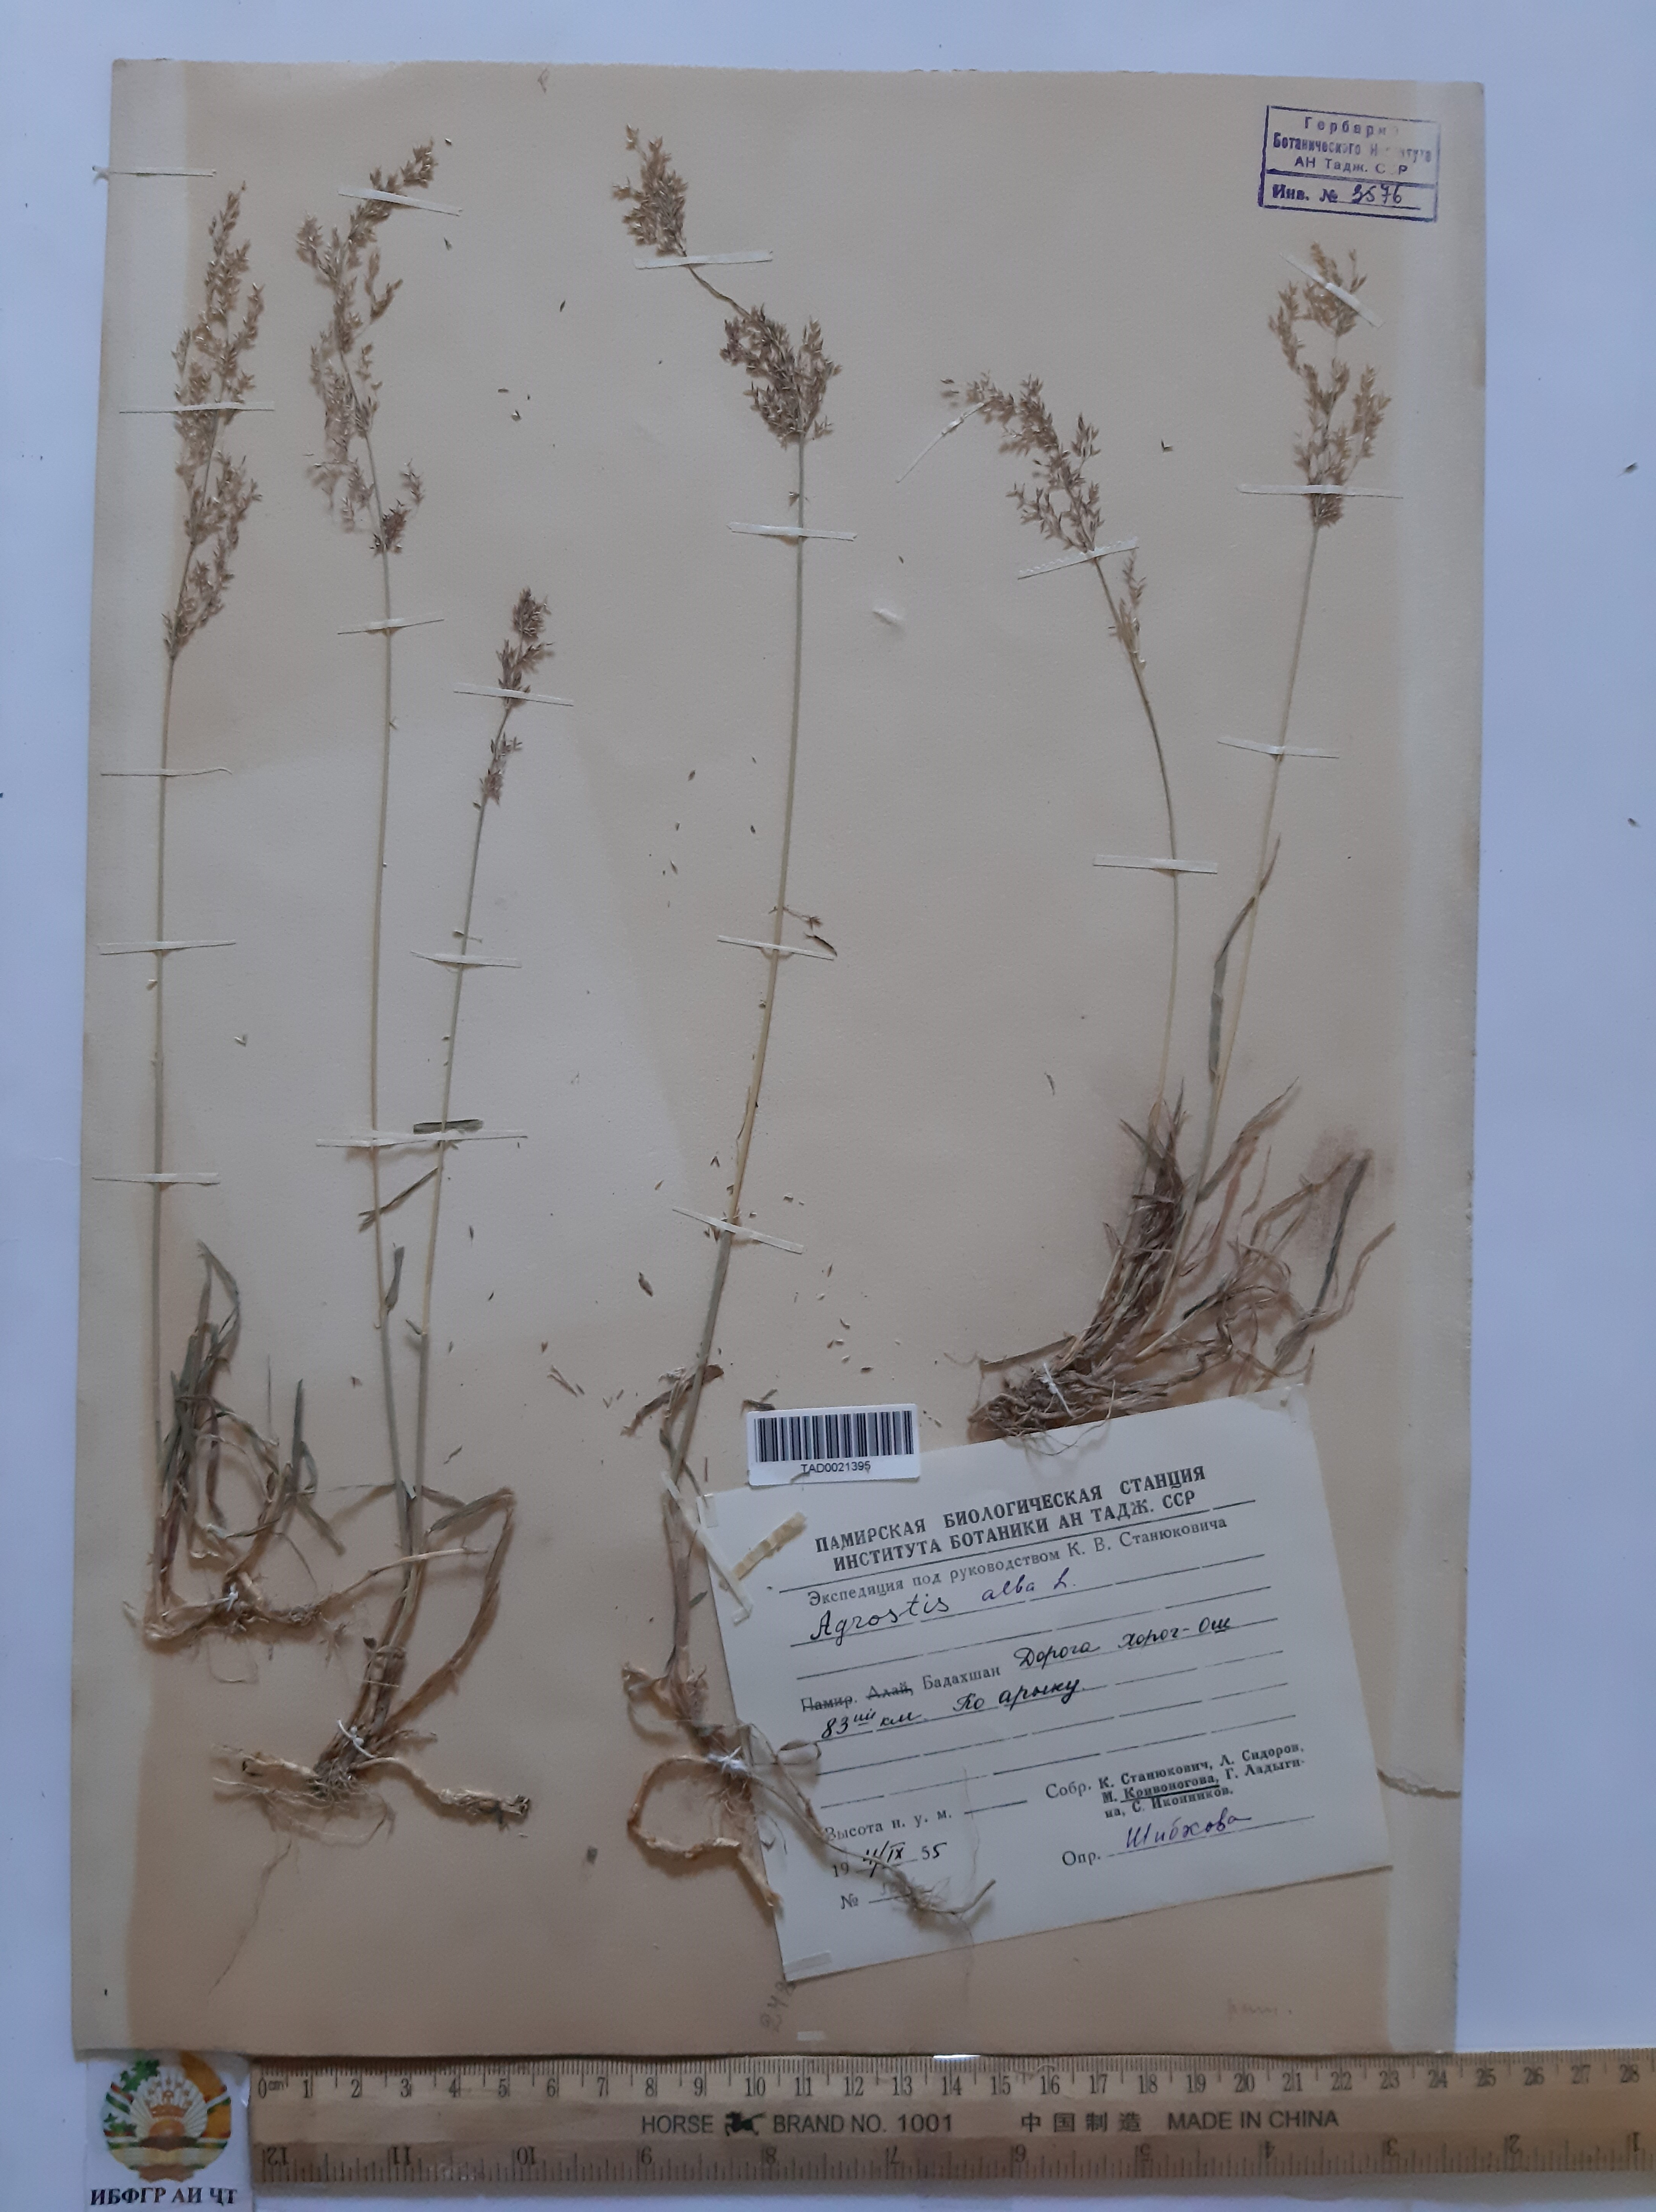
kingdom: Plantae
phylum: Tracheophyta
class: Liliopsida
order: Poales
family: Poaceae
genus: Poa
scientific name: Poa nemoralis
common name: Wood bluegrass
